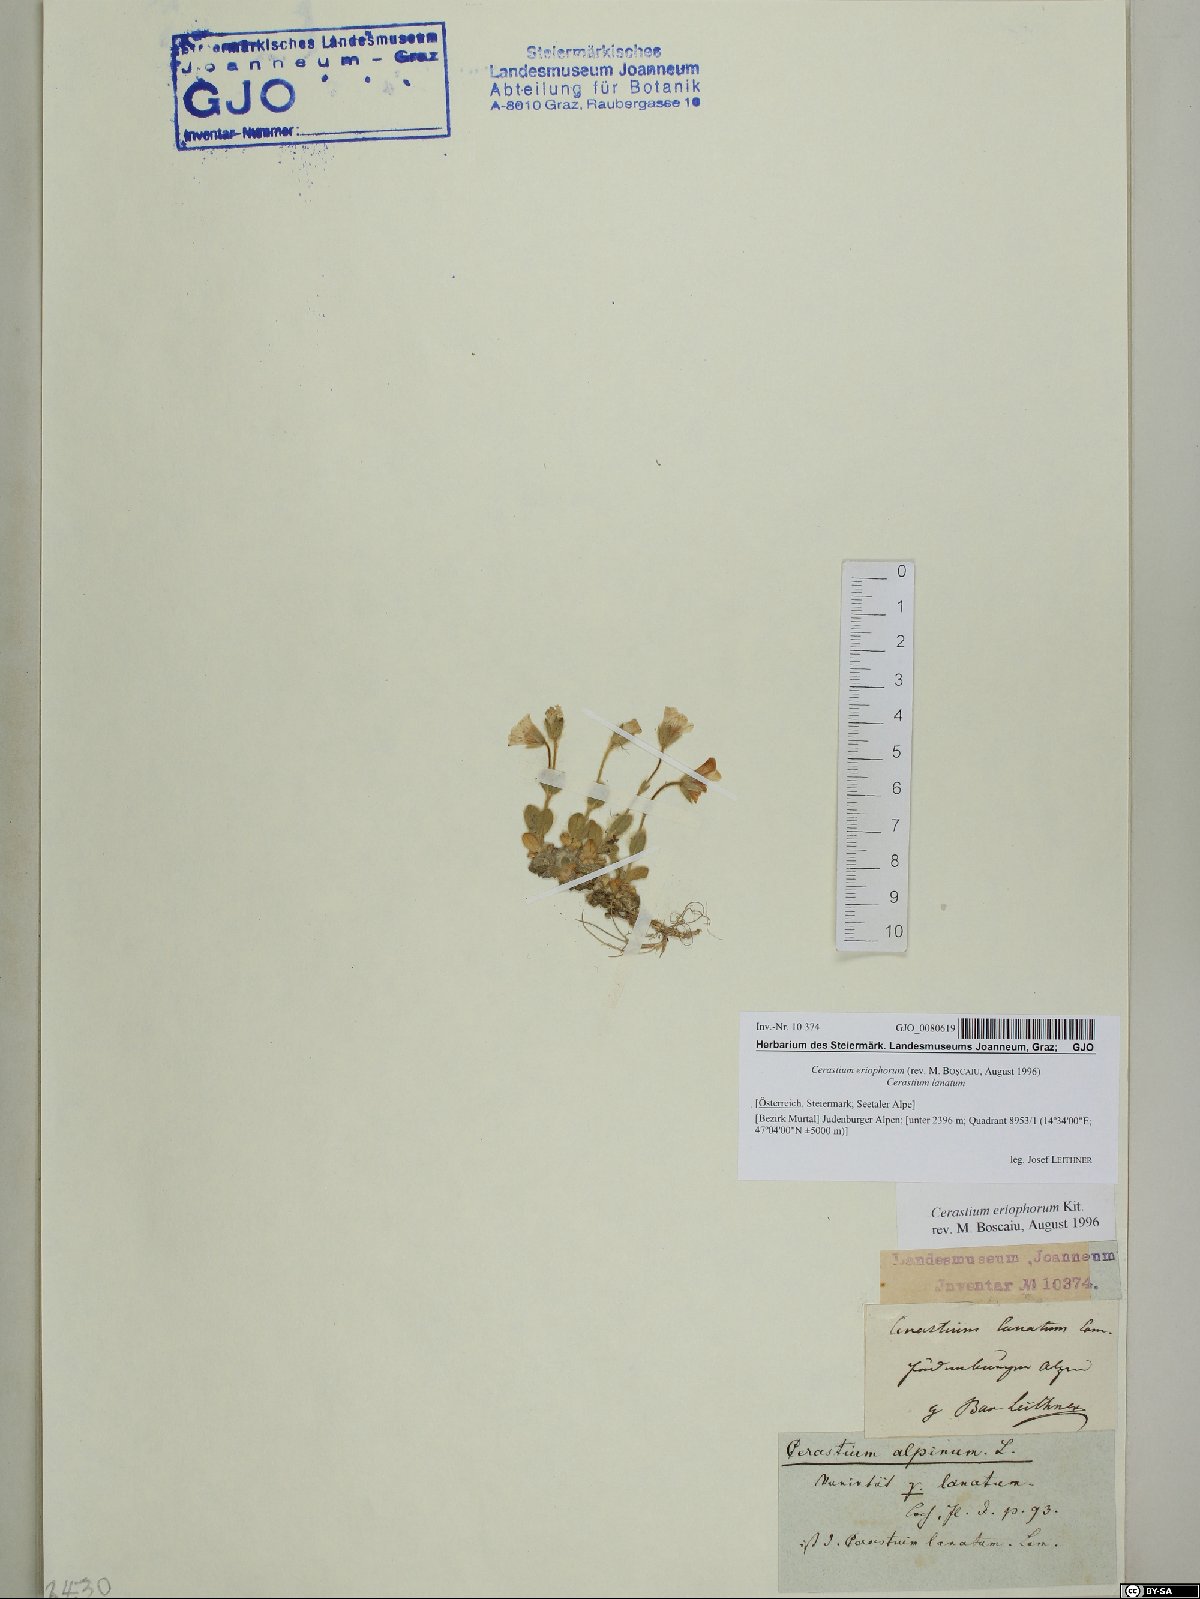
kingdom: Plantae
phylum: Tracheophyta
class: Magnoliopsida
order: Caryophyllales
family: Caryophyllaceae
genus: Cerastium
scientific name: Cerastium eriophorum
